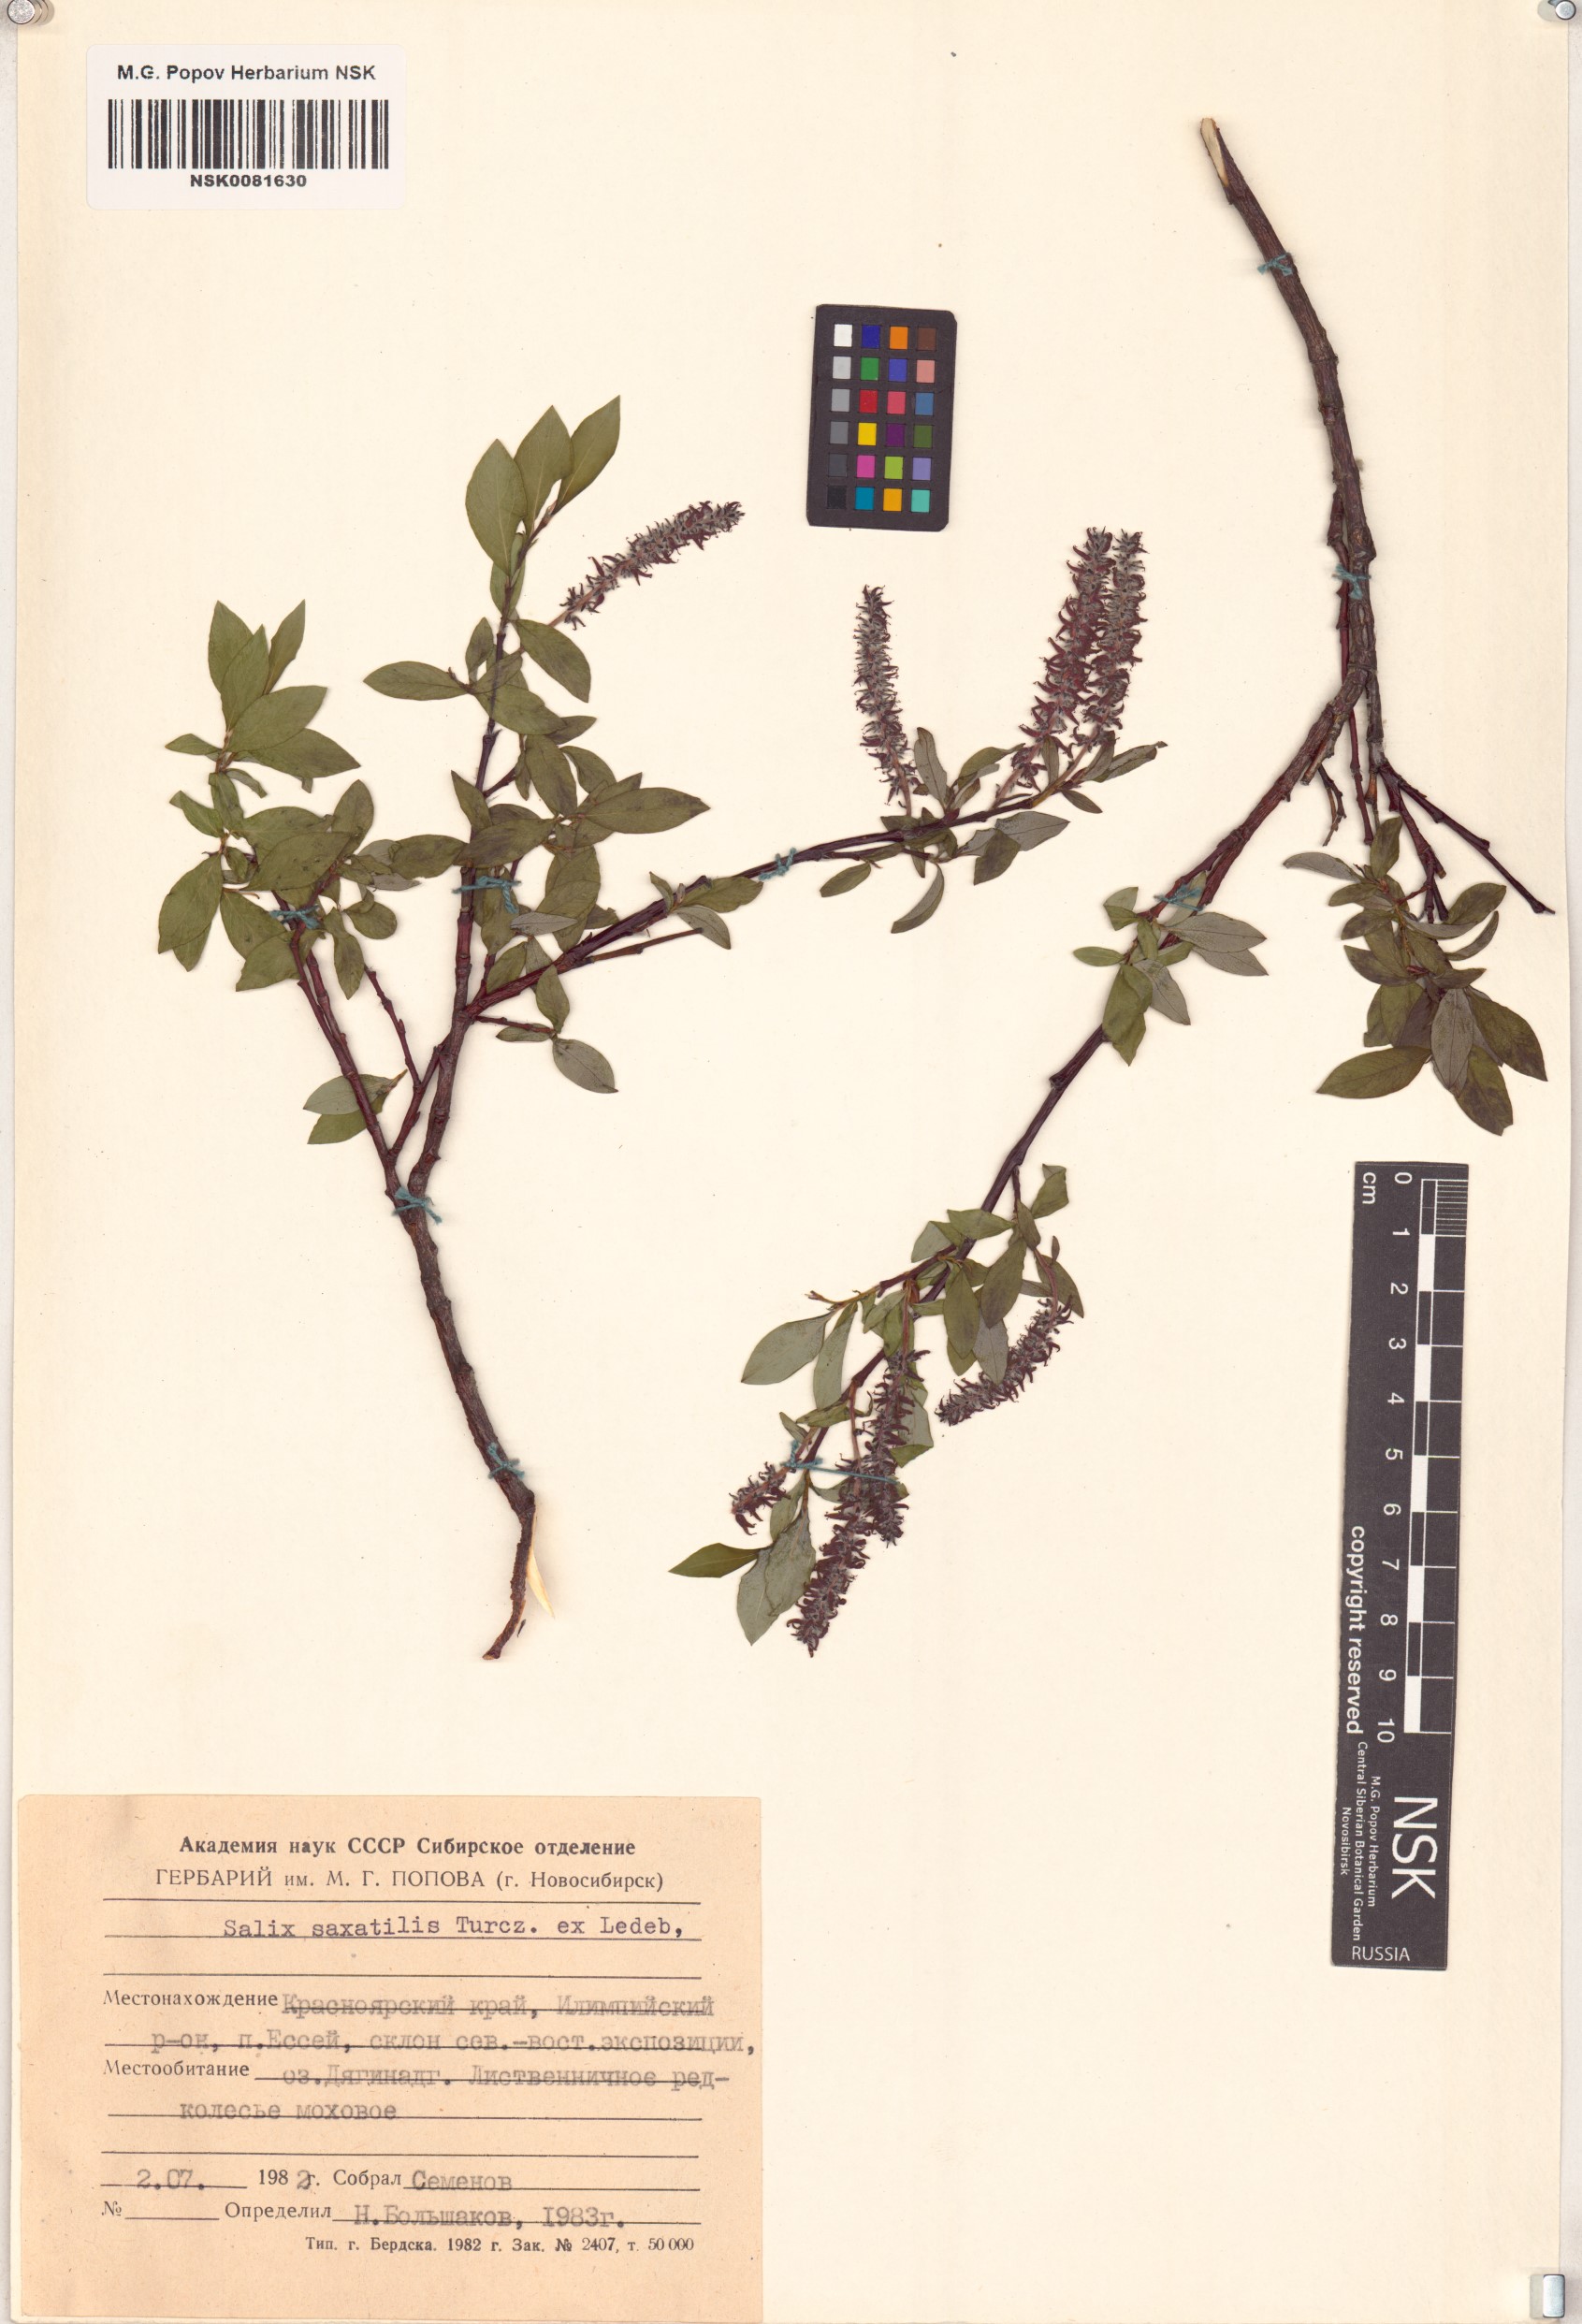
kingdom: Plantae
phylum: Tracheophyta
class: Magnoliopsida
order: Malpighiales
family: Salicaceae
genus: Salix
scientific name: Salix saxatilis
